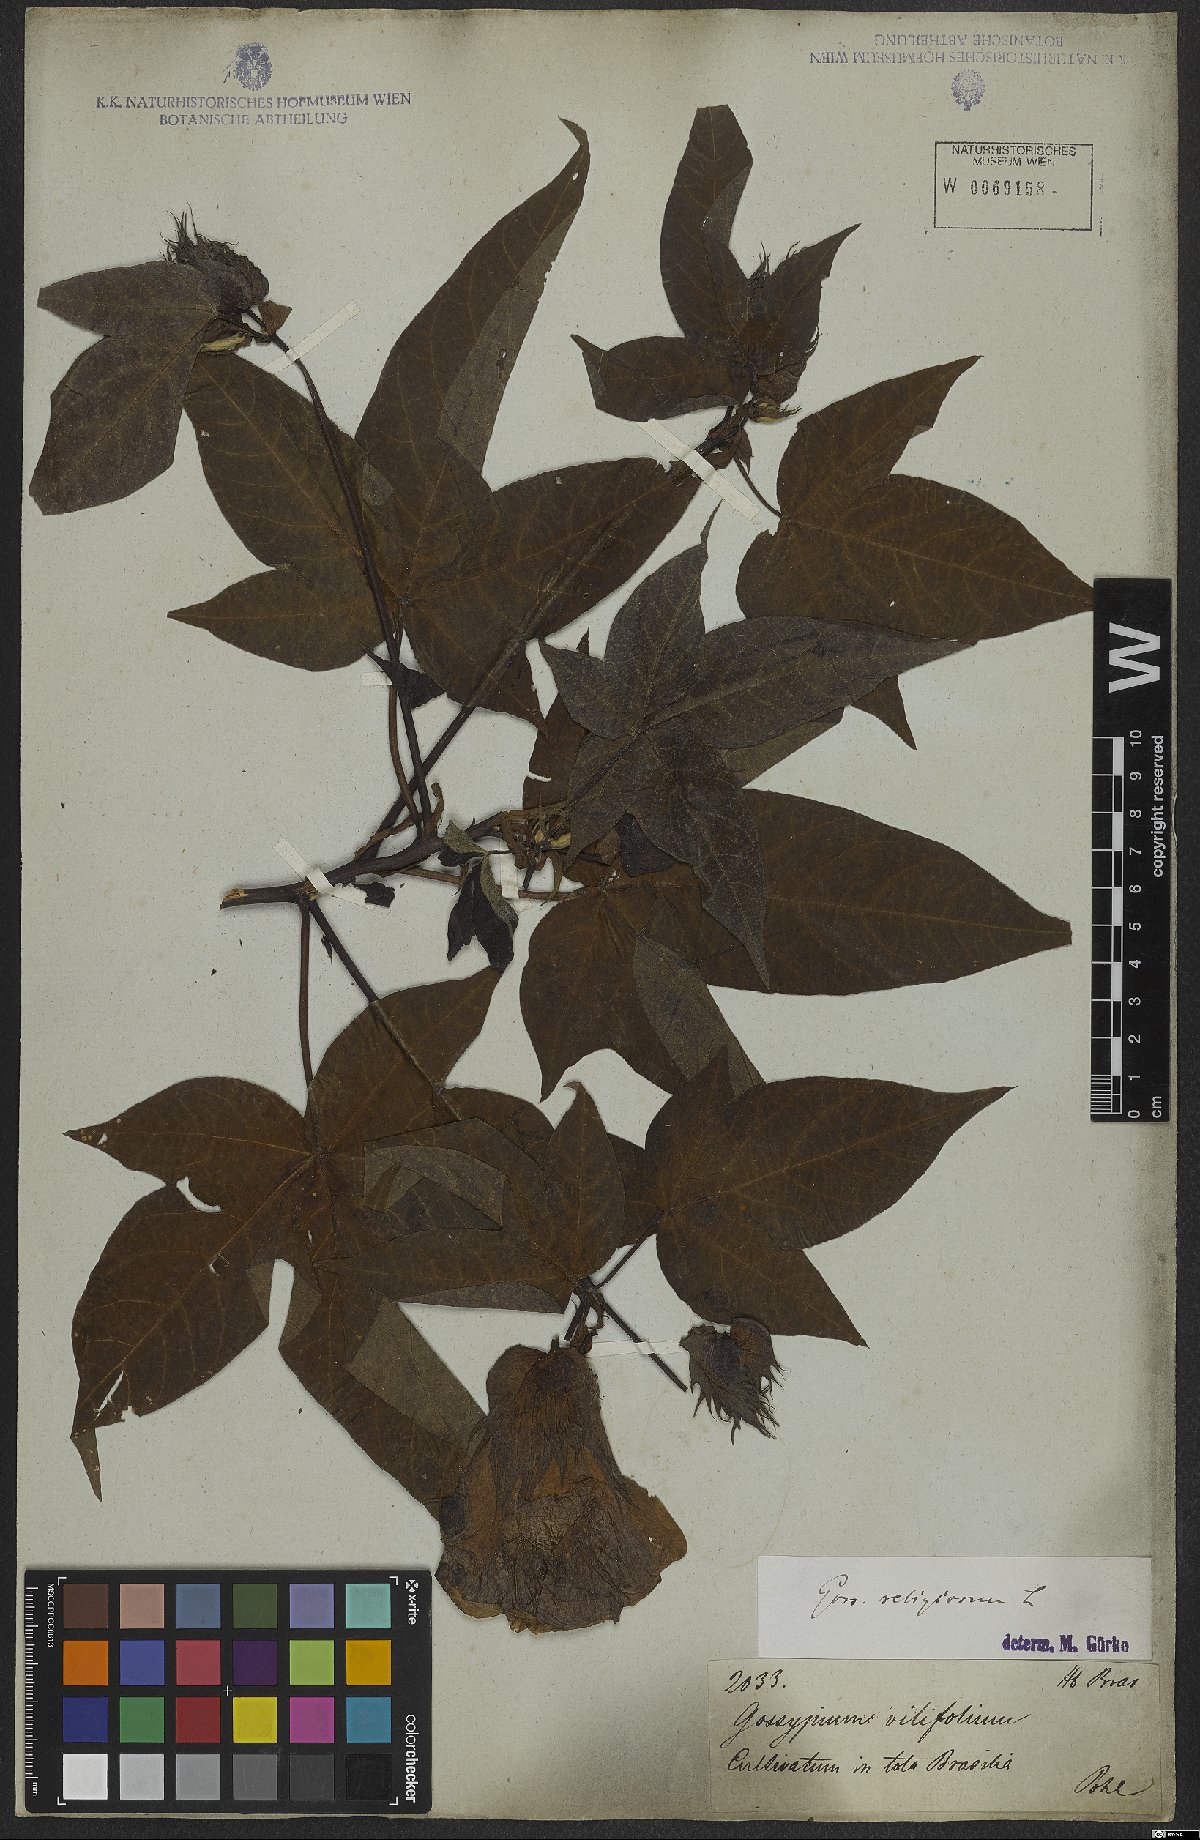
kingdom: Plantae
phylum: Tracheophyta
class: Magnoliopsida
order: Malvales
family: Malvaceae
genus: Gossypium
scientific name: Gossypium hirsutum
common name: Cotton
